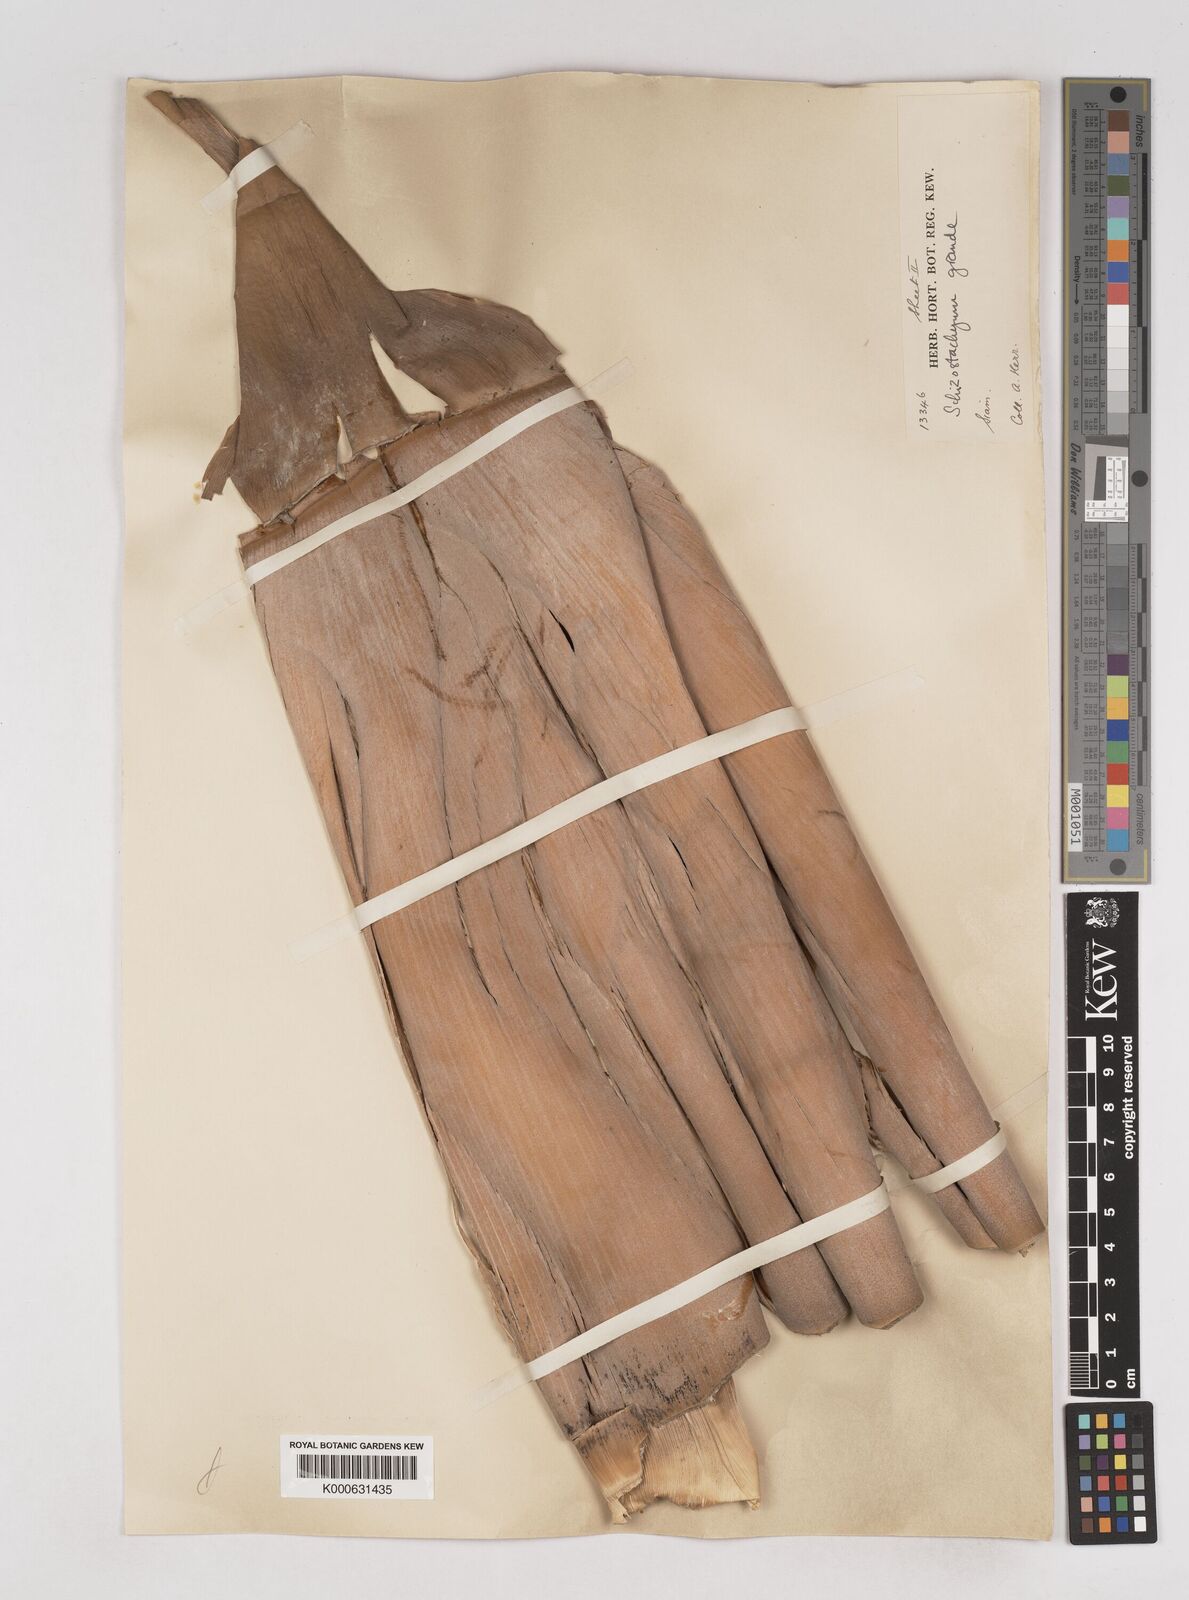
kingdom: Plantae
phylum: Tracheophyta
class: Liliopsida
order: Poales
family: Poaceae
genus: Schizostachyum
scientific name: Schizostachyum grande
